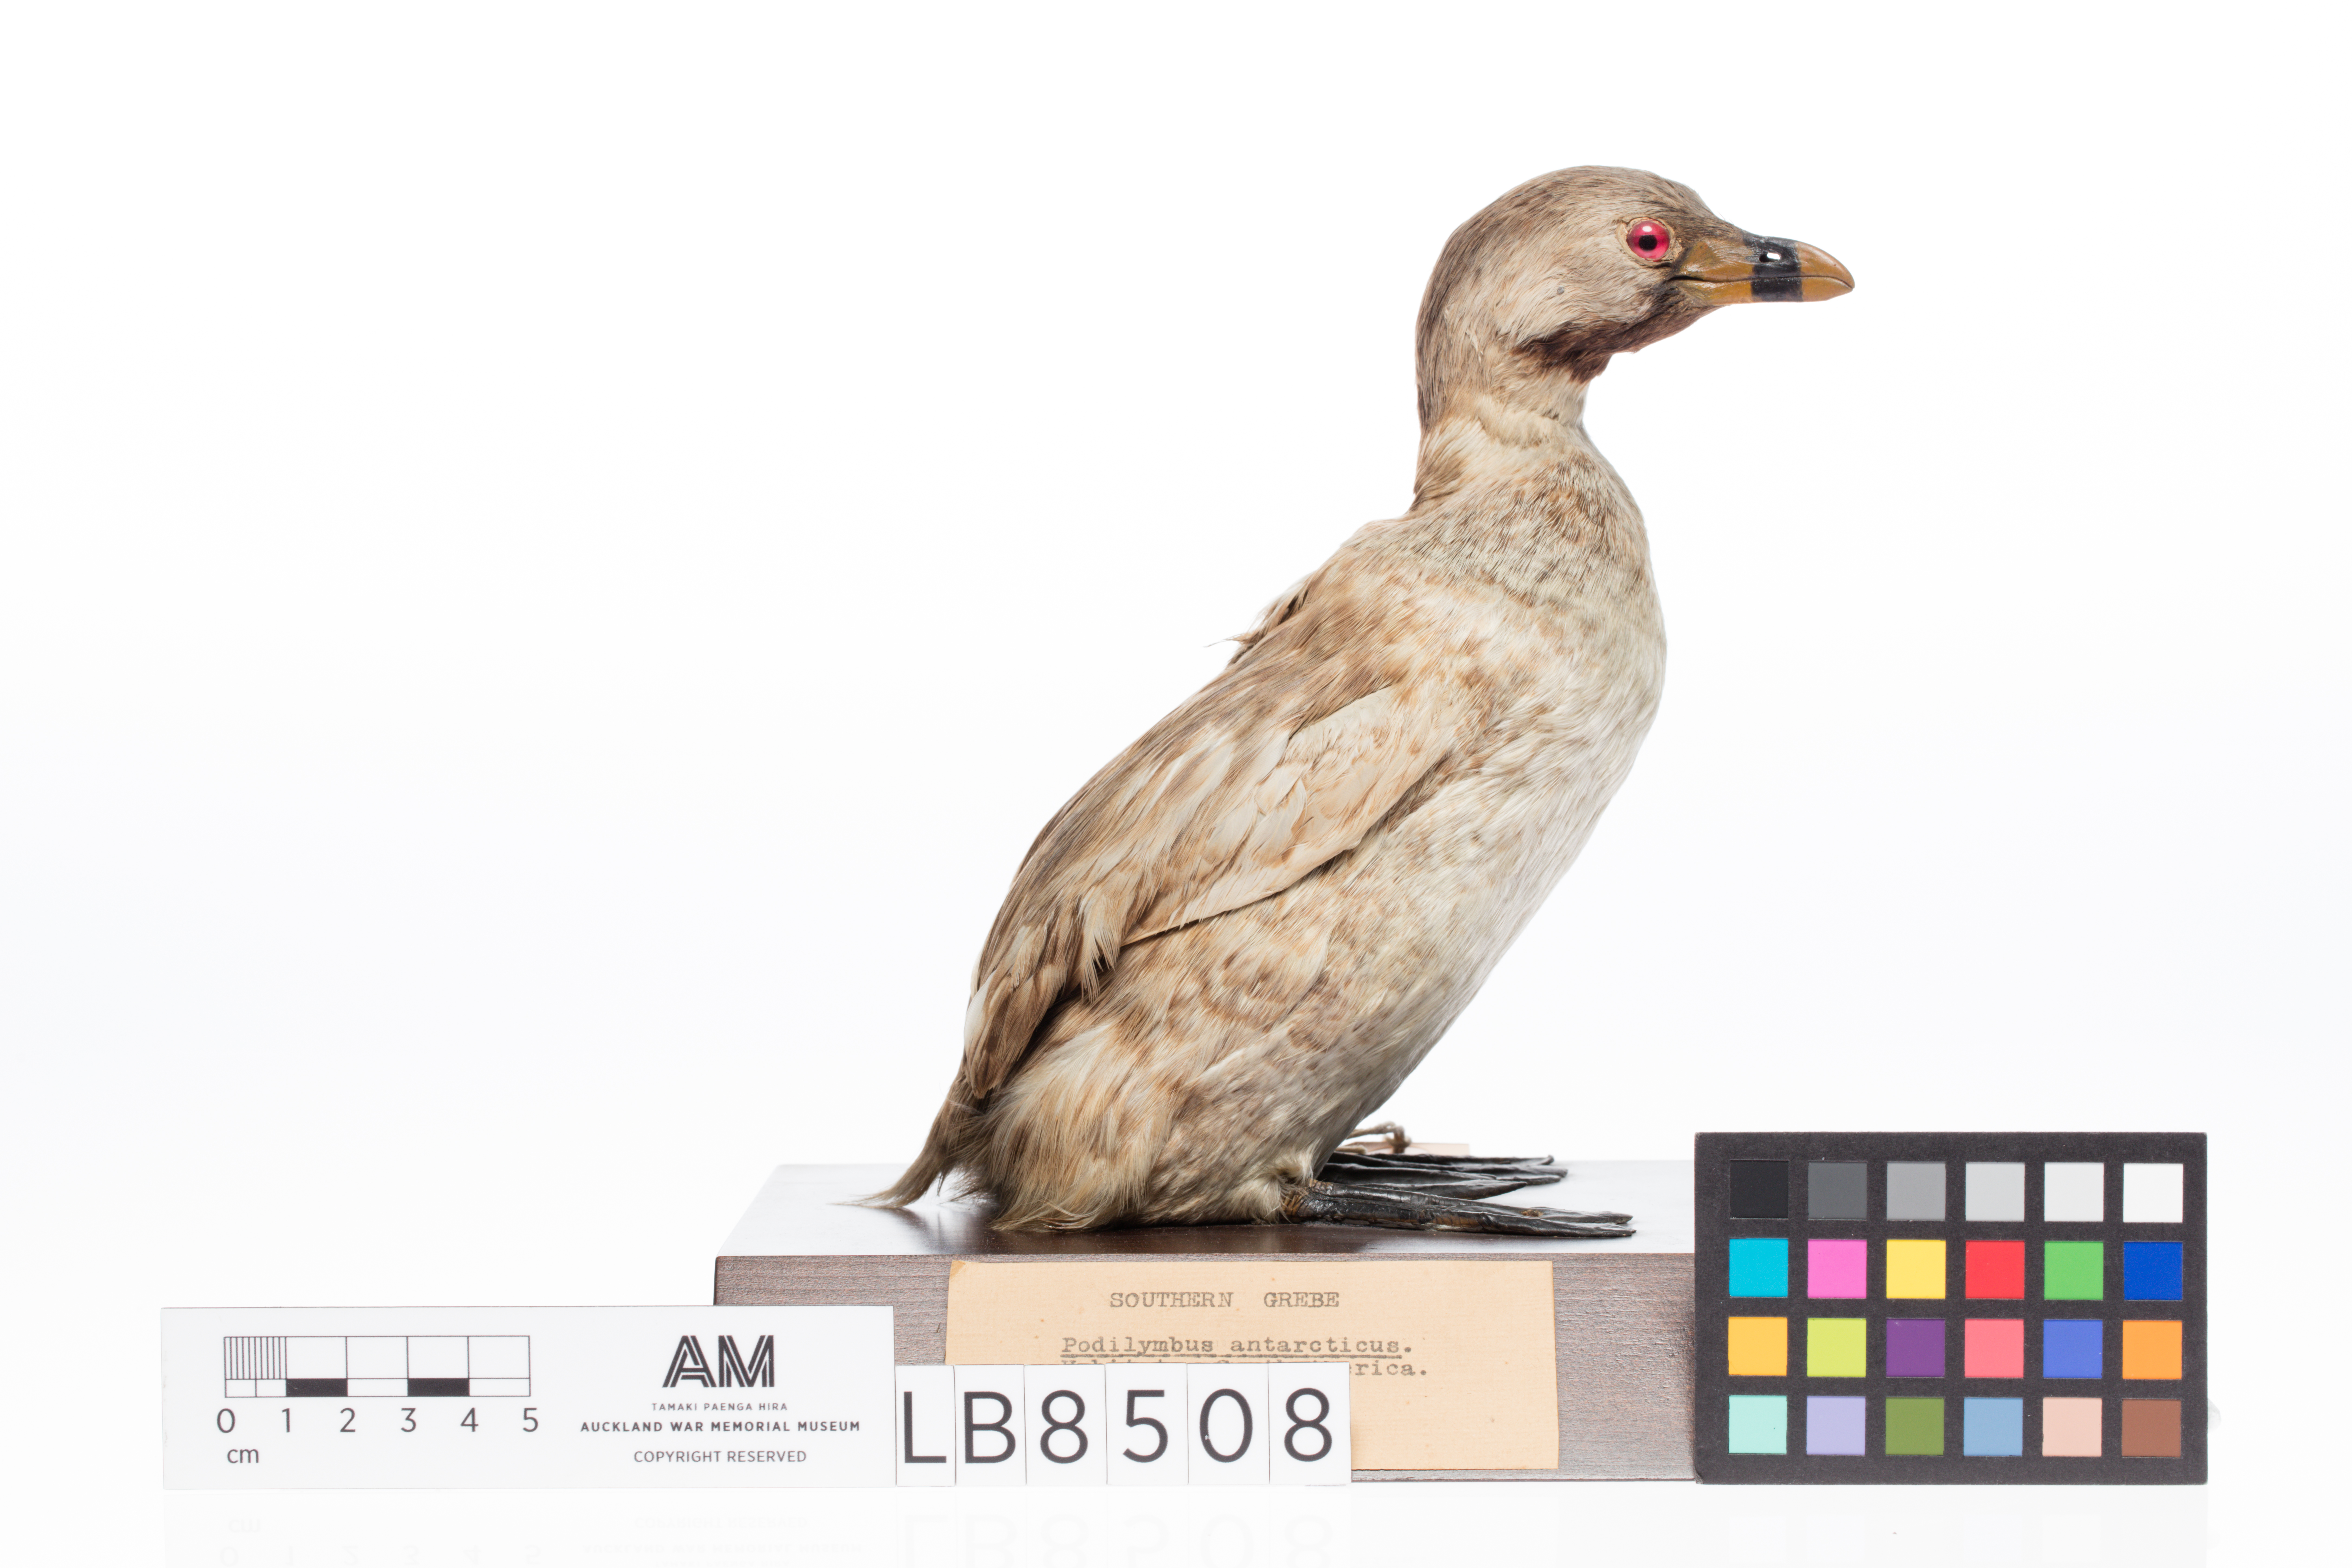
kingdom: Animalia
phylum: Chordata
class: Aves
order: Podicipediformes
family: Podicipedidae
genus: Podilymbus
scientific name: Podilymbus podiceps
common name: Pied-billed grebe
